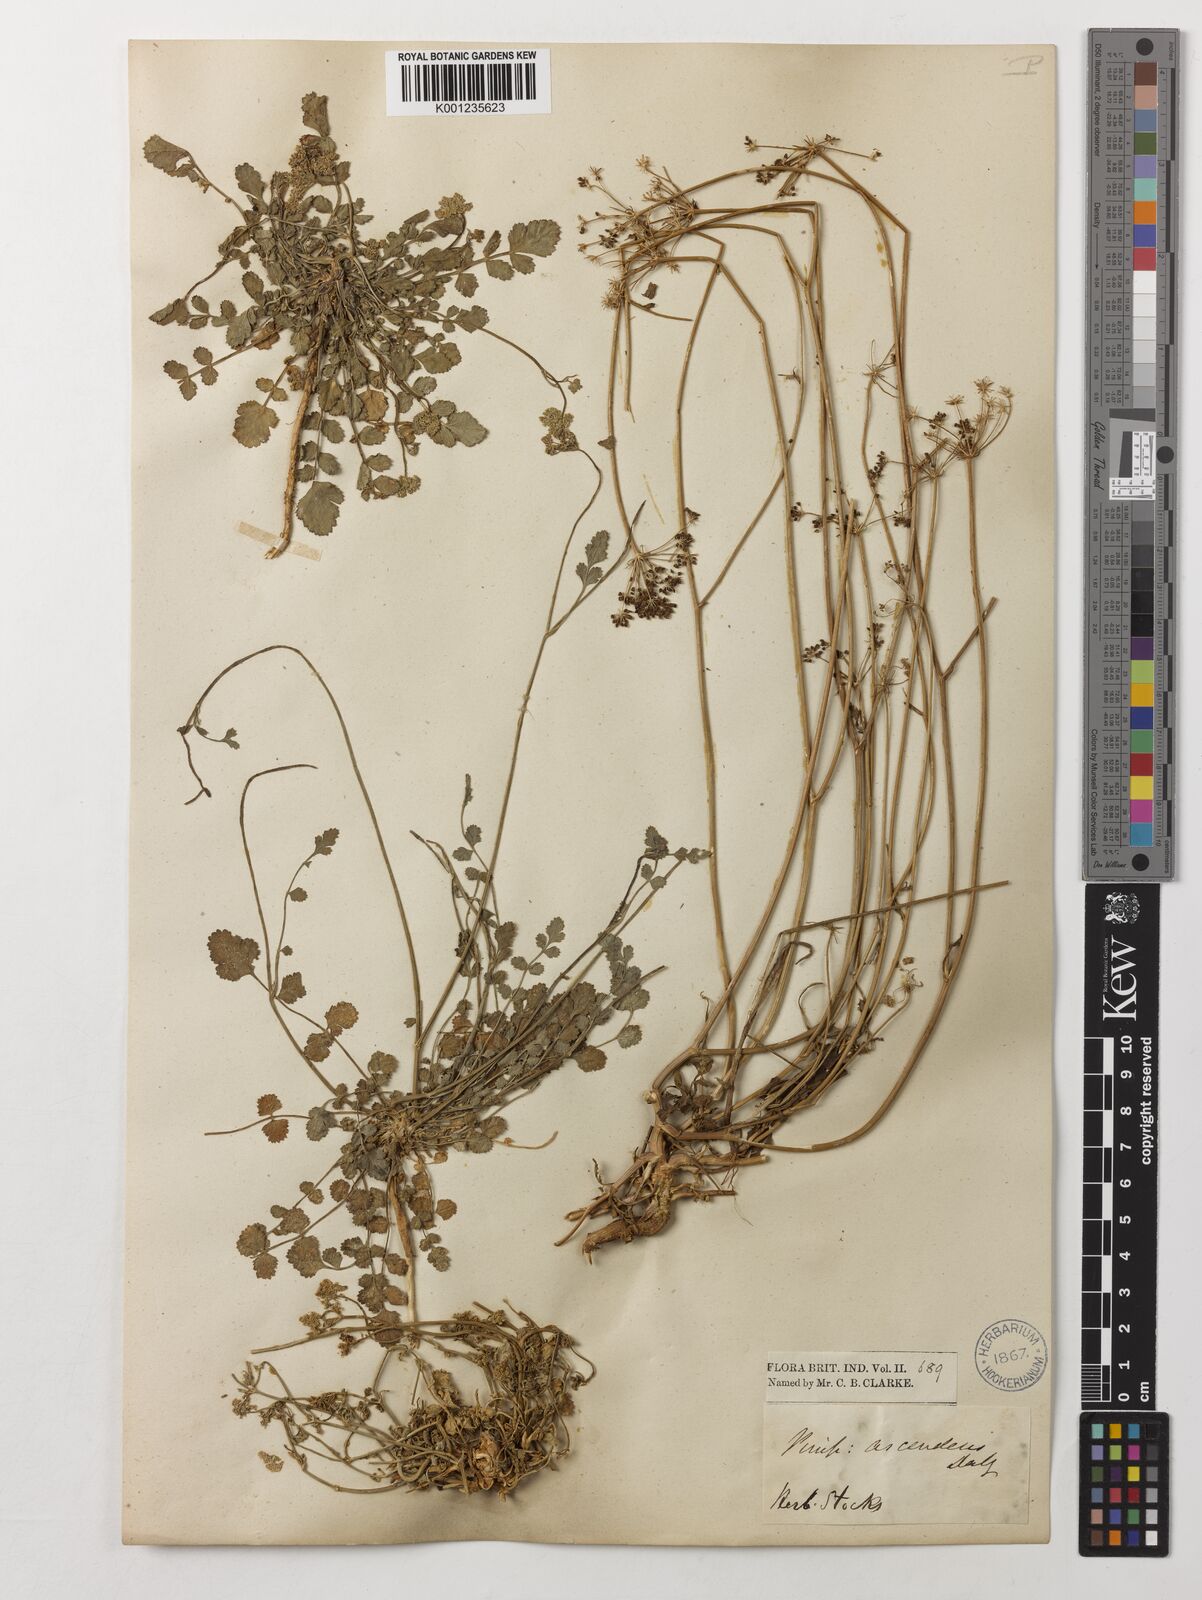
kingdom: Plantae
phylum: Tracheophyta
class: Magnoliopsida
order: Apiales
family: Apiaceae
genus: Pimpinella
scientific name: Pimpinella adscendens
